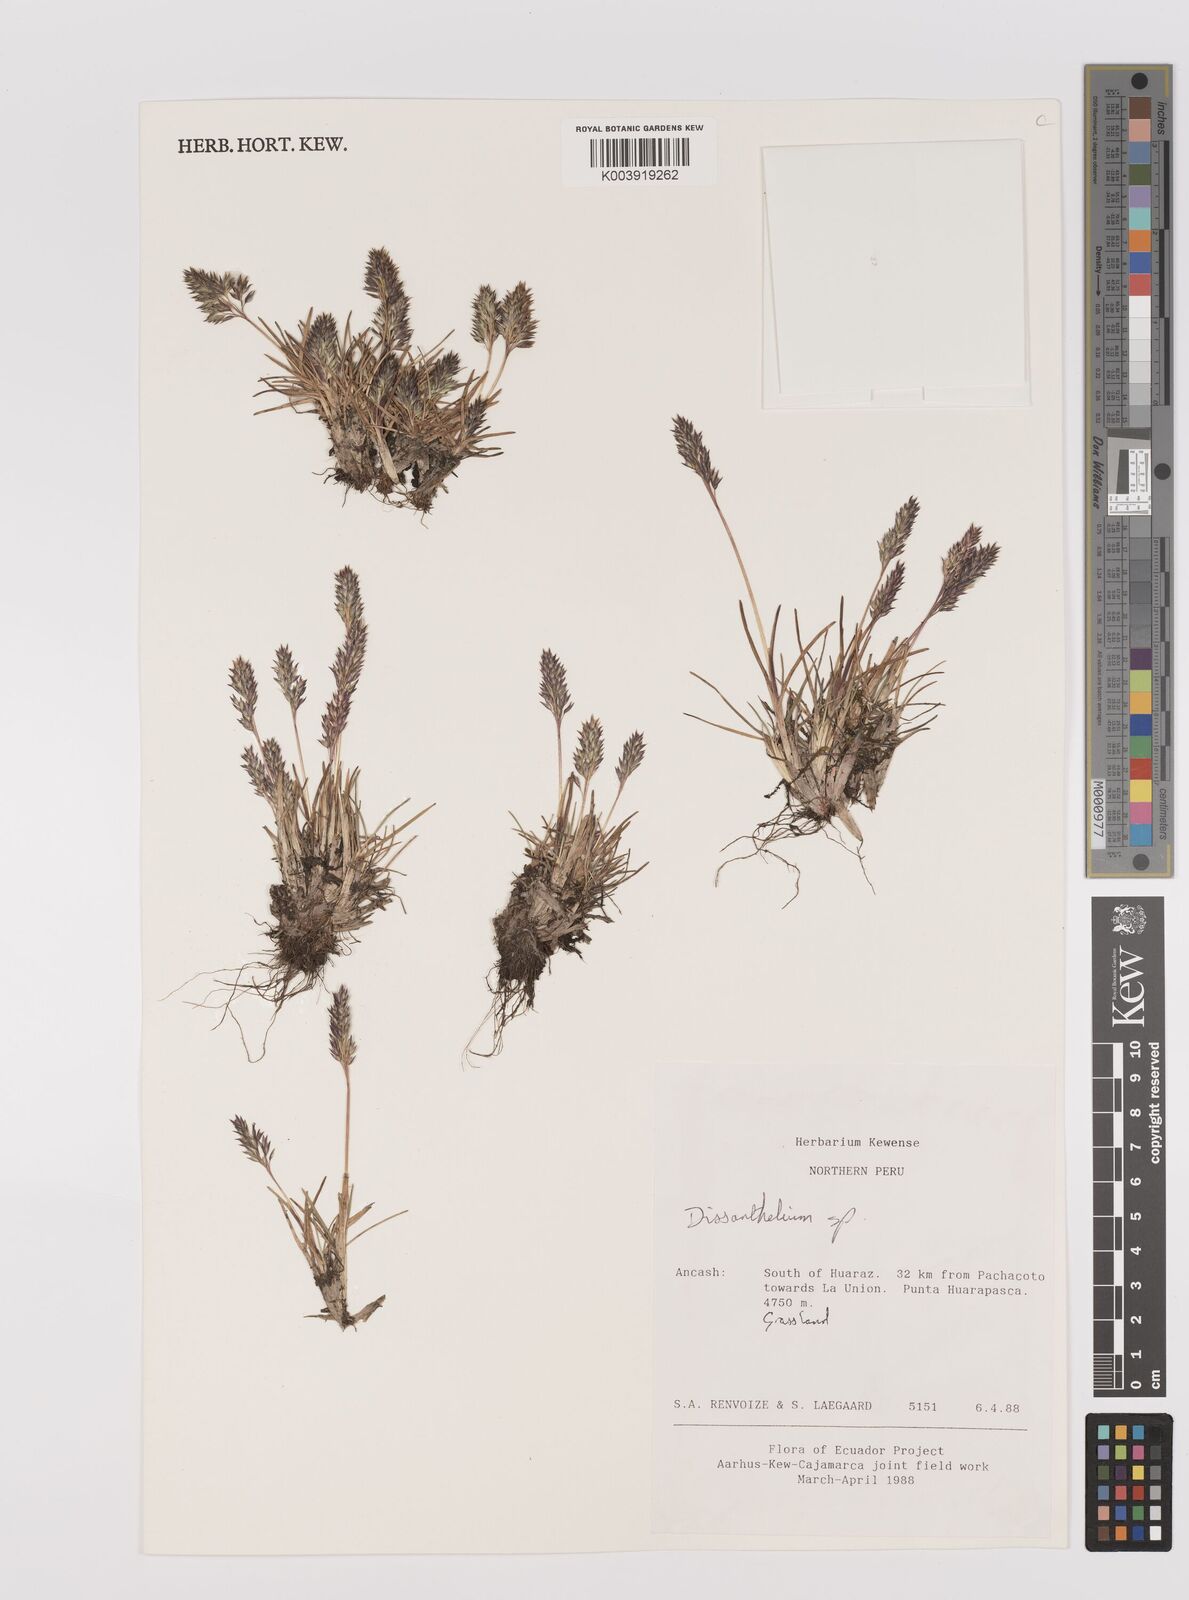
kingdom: Plantae
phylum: Tracheophyta
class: Liliopsida
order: Poales
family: Poaceae
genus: Poa
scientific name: Poa calycina
